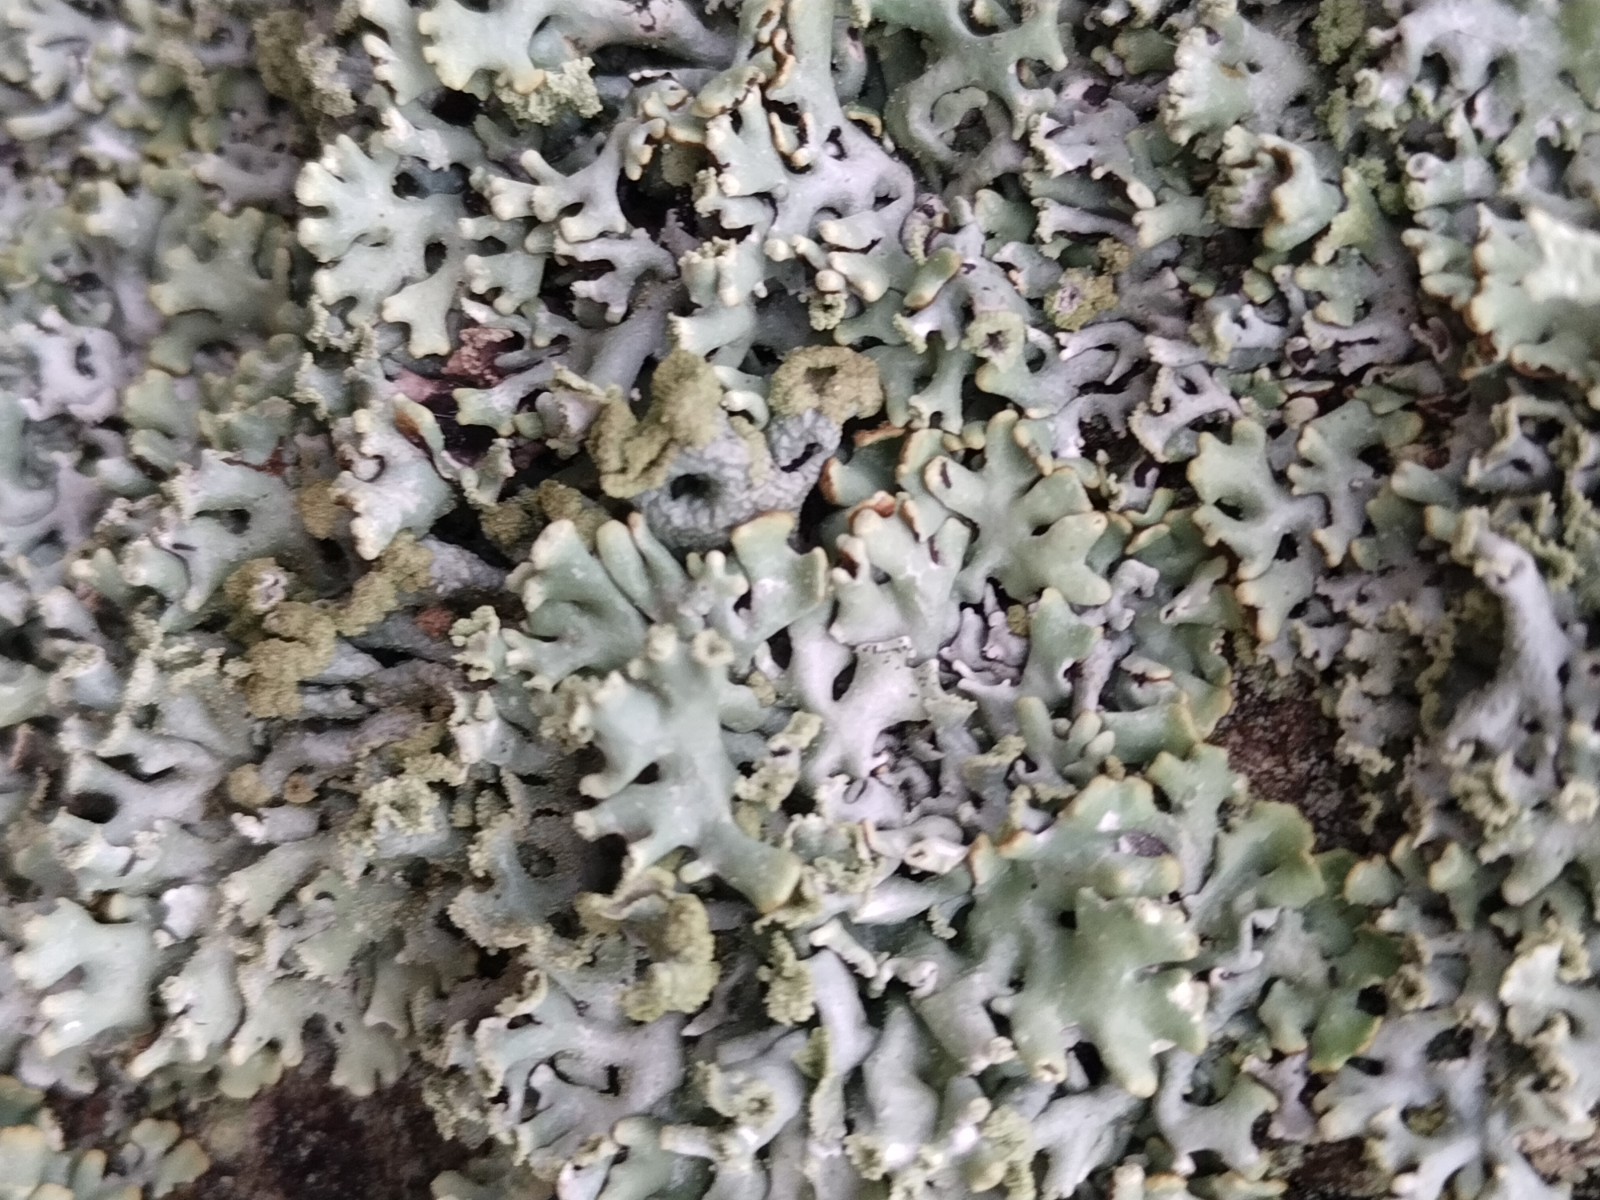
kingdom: Fungi
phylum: Ascomycota
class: Lecanoromycetes
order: Lecanorales
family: Parmeliaceae
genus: Hypogymnia
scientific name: Hypogymnia physodes
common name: almindelig kvistlav
